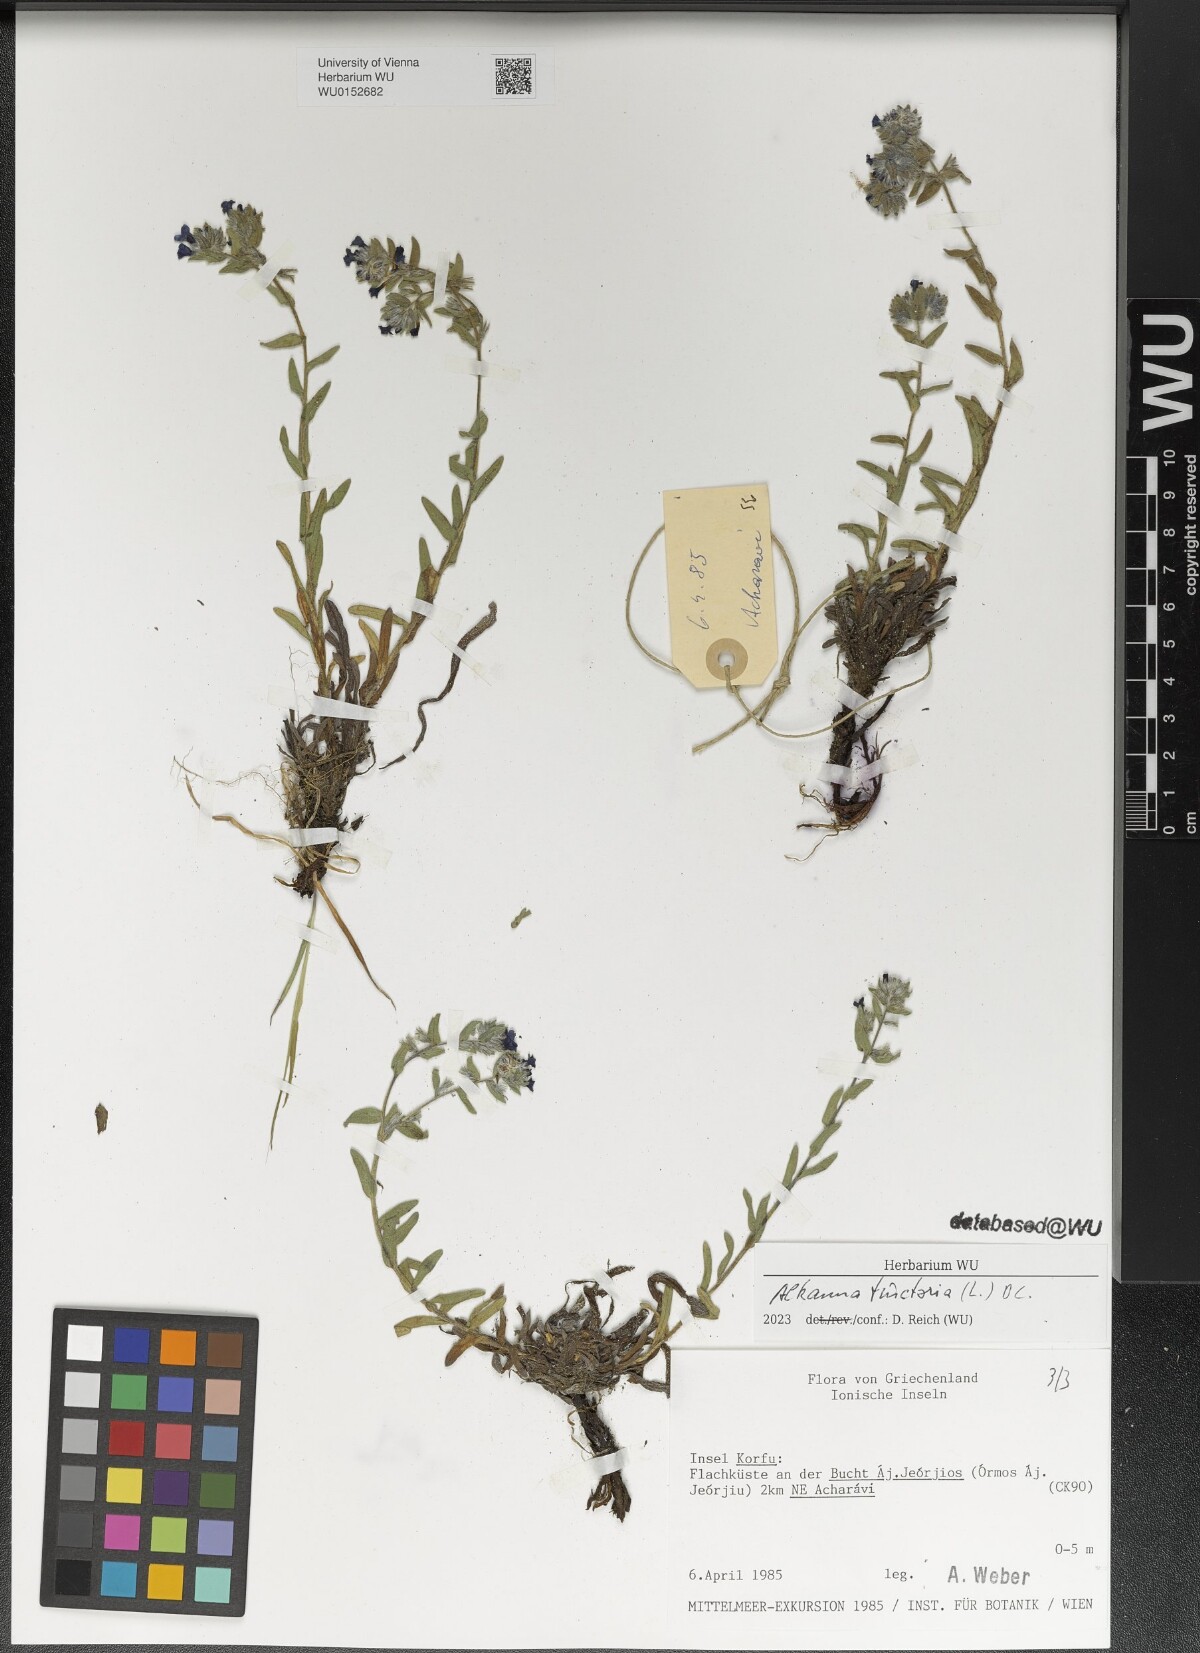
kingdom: Plantae
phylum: Tracheophyta
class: Magnoliopsida
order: Boraginales
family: Boraginaceae
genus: Alkanna
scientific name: Alkanna tinctoria
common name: Dyer's-alkanet
